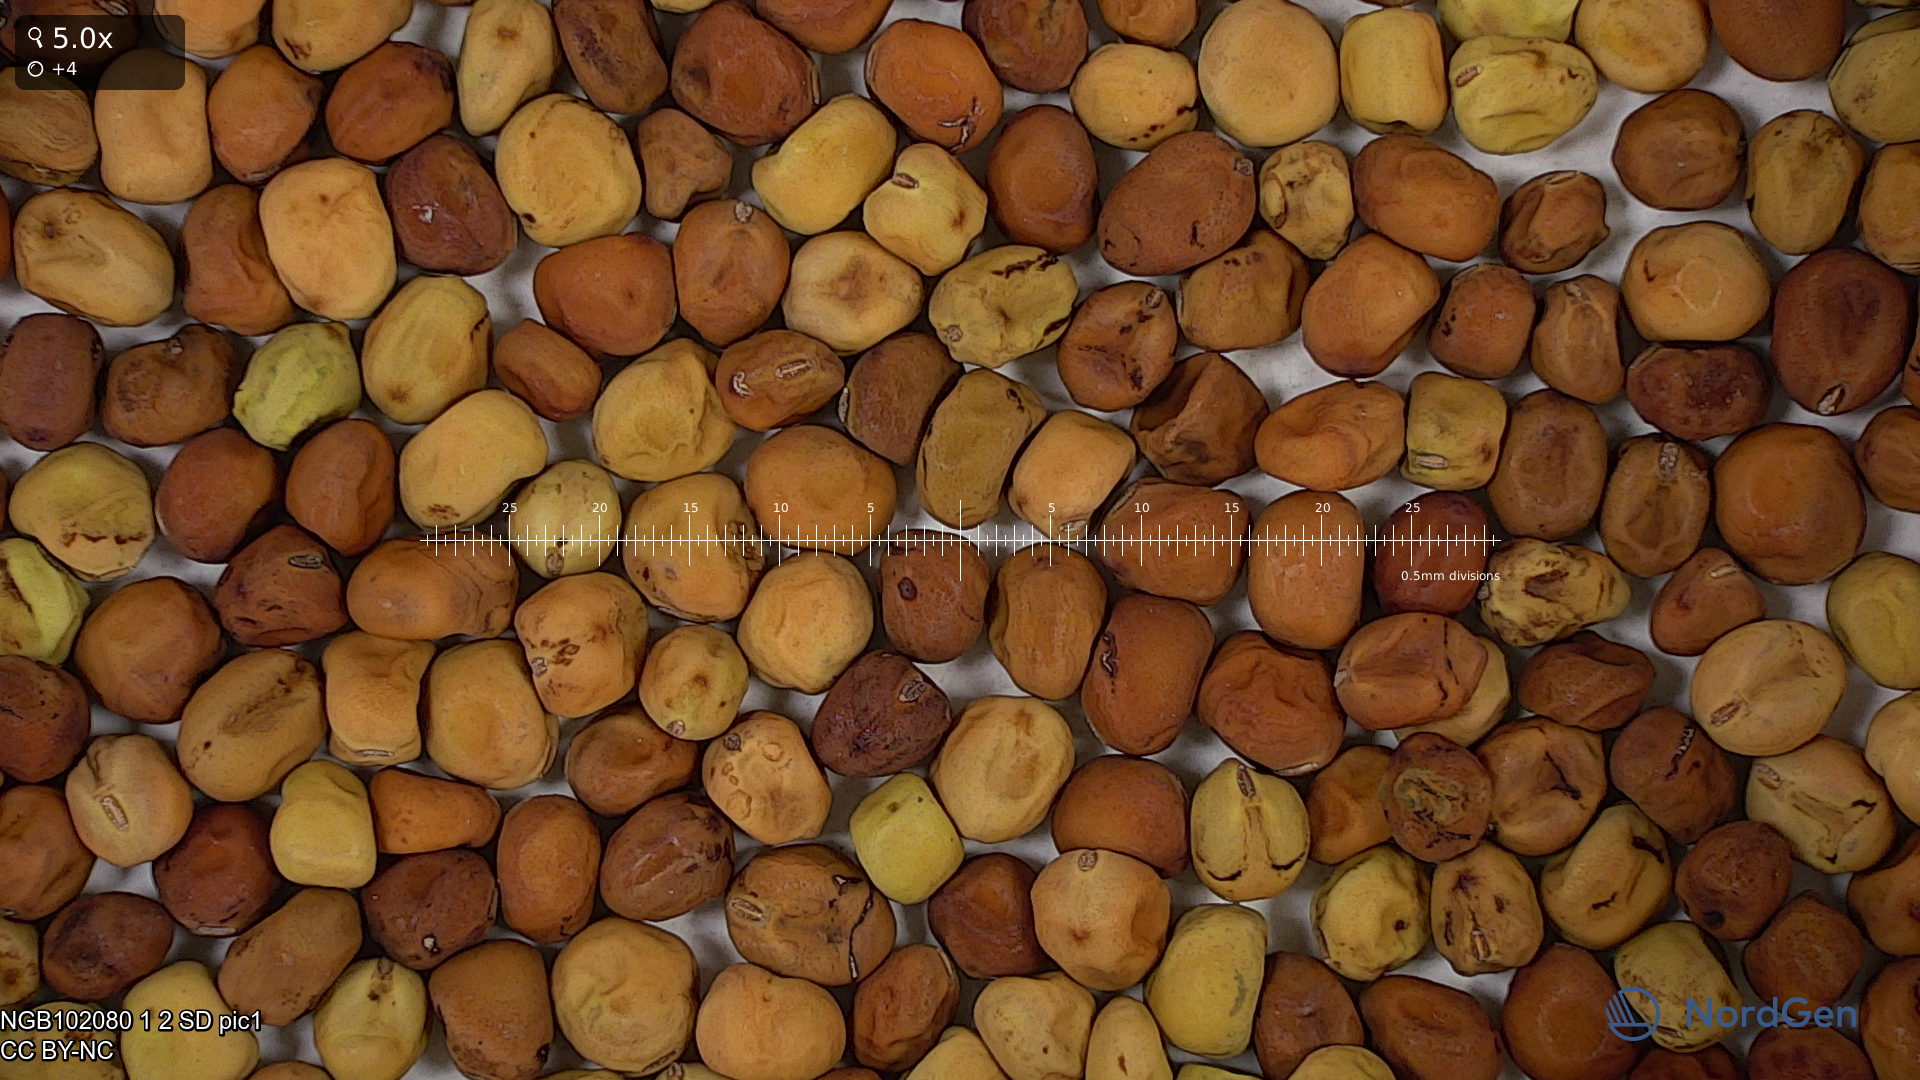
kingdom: Plantae
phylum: Tracheophyta
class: Magnoliopsida
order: Fabales
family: Fabaceae
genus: Lathyrus
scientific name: Lathyrus oleraceus
